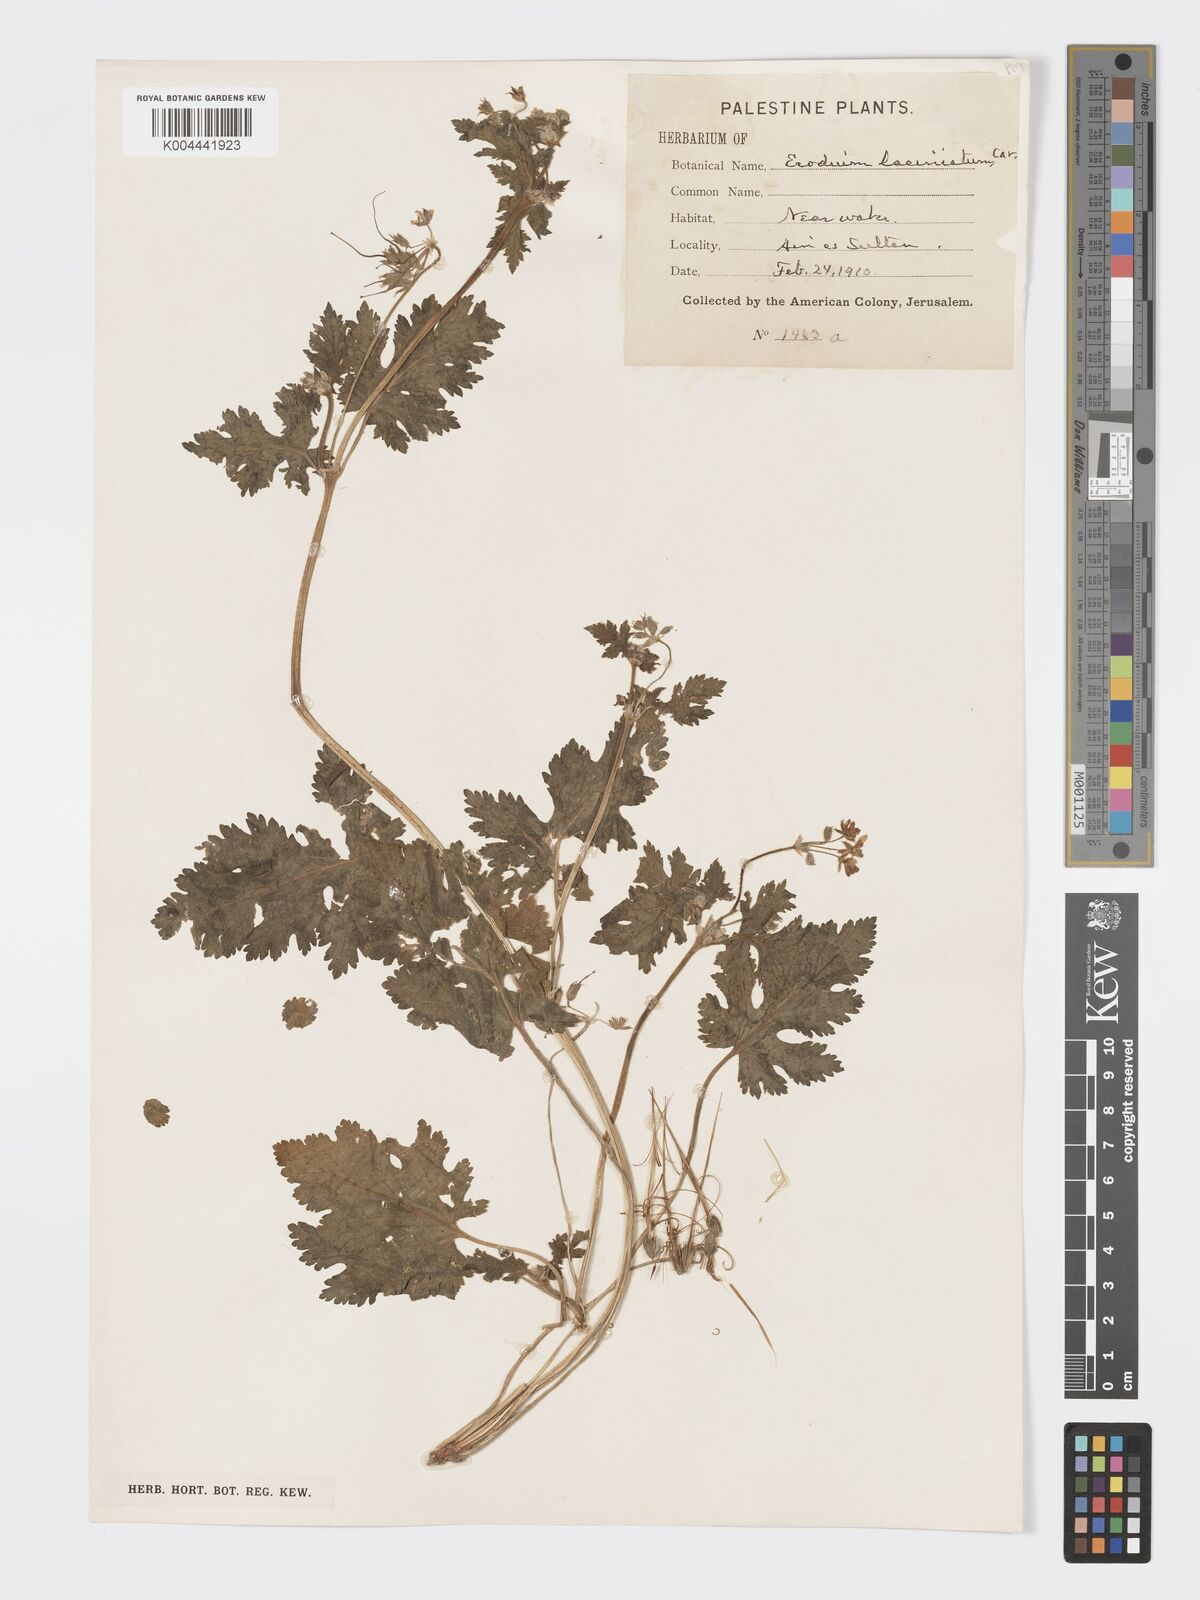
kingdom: Plantae
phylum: Tracheophyta
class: Magnoliopsida
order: Geraniales
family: Geraniaceae
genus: Erodium
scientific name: Erodium laciniatum
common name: Cutleaf stork's bill
